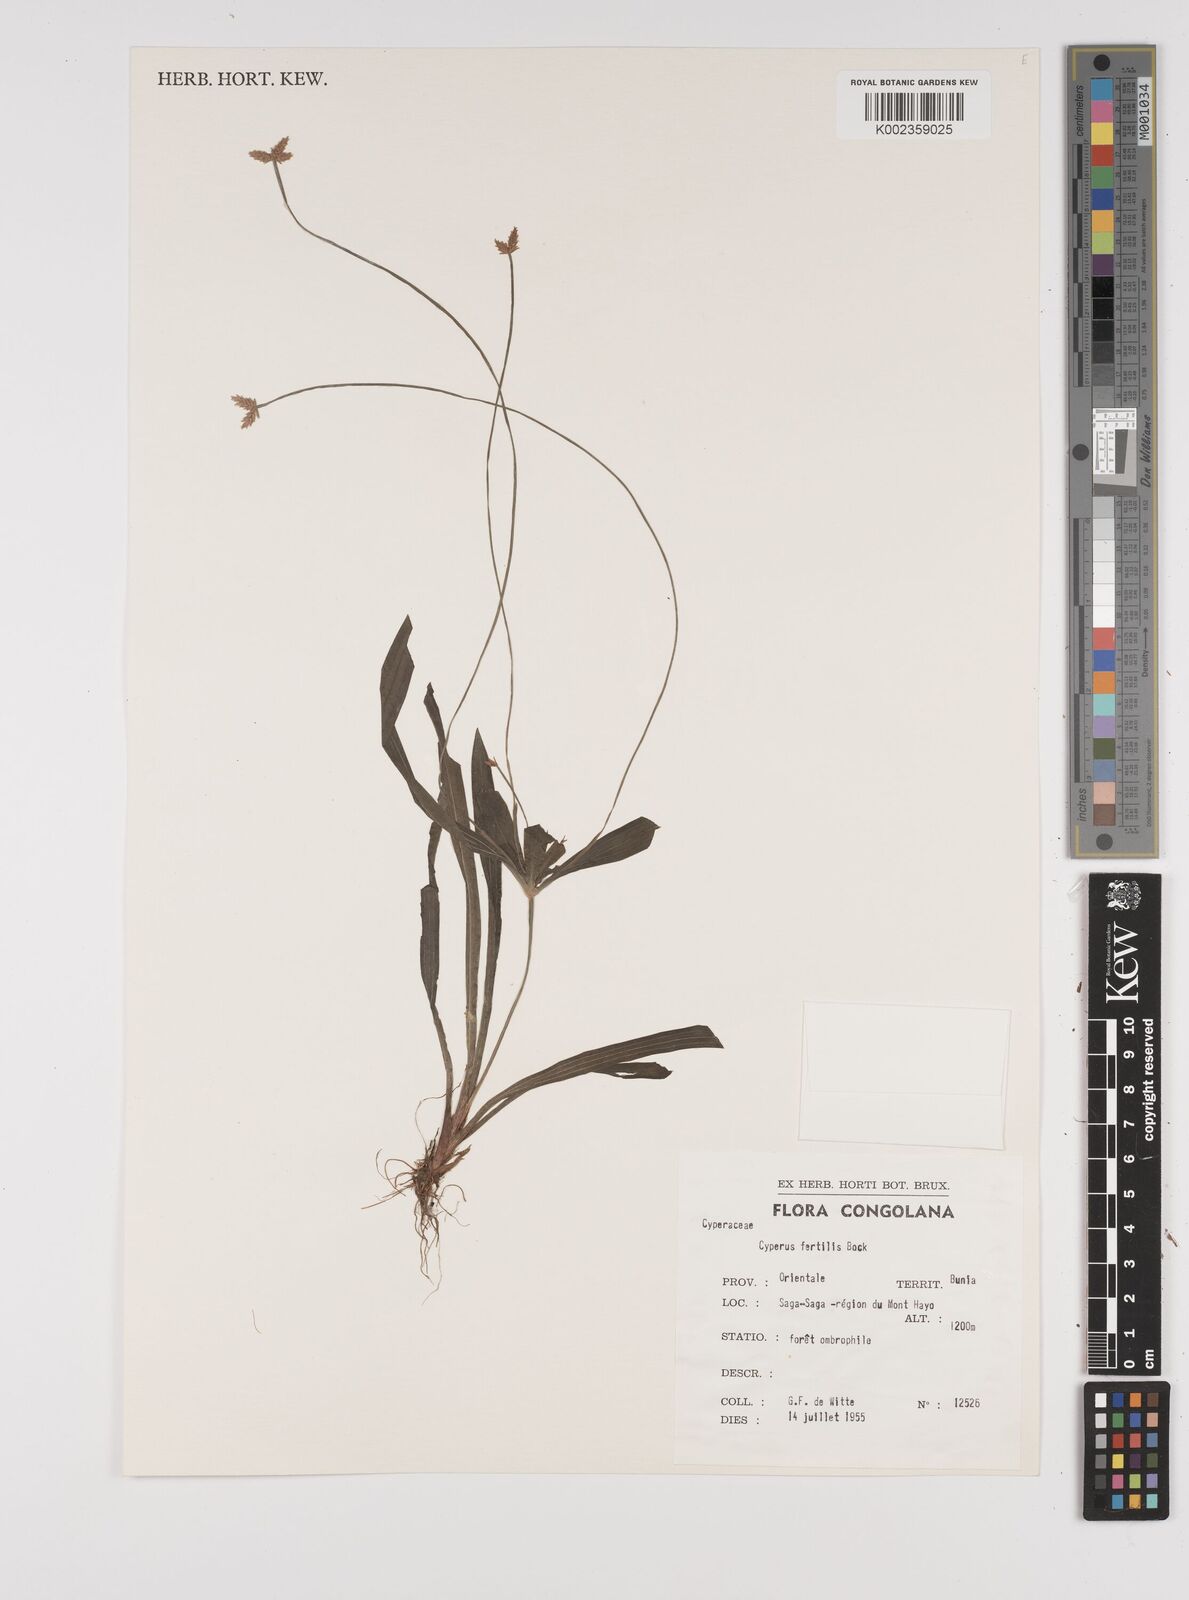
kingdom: Plantae
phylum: Tracheophyta
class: Liliopsida
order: Poales
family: Cyperaceae
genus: Cyperus
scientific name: Cyperus fertilis
